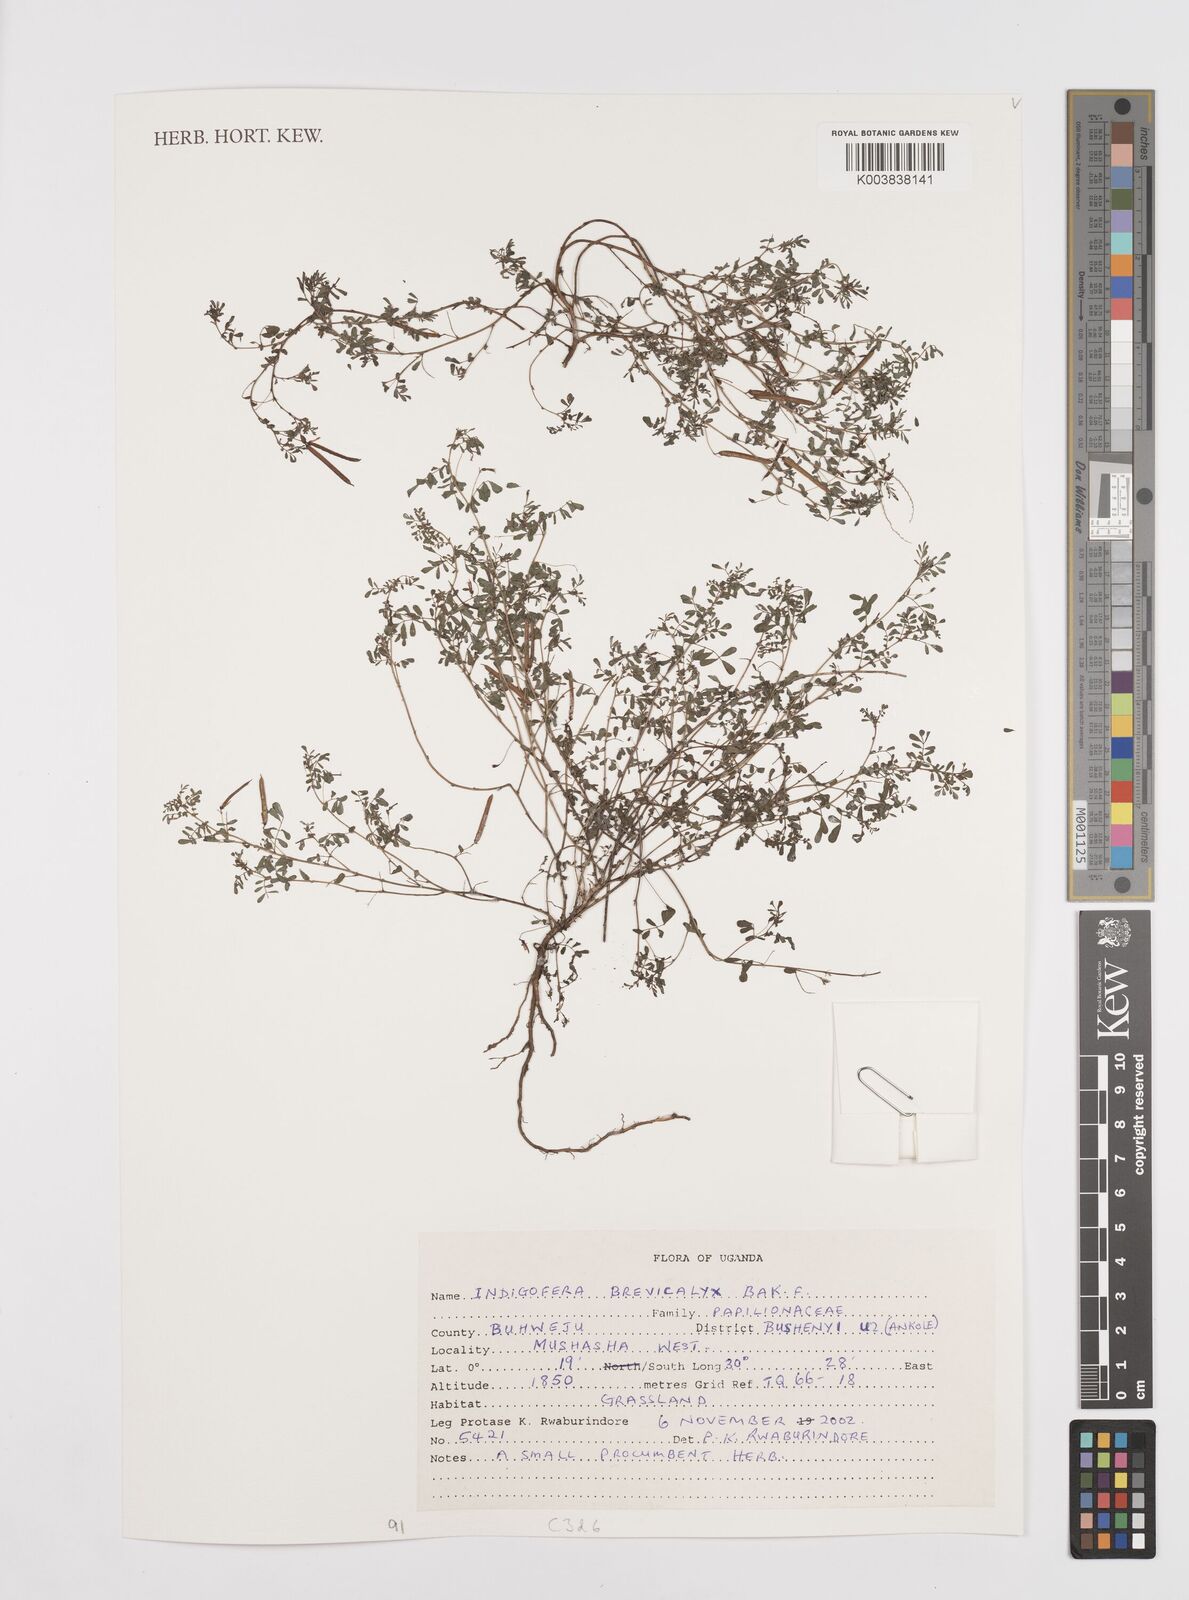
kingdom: Plantae
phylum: Tracheophyta
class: Magnoliopsida
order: Fabales
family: Fabaceae
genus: Indigofera
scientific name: Indigofera brevicalyx
